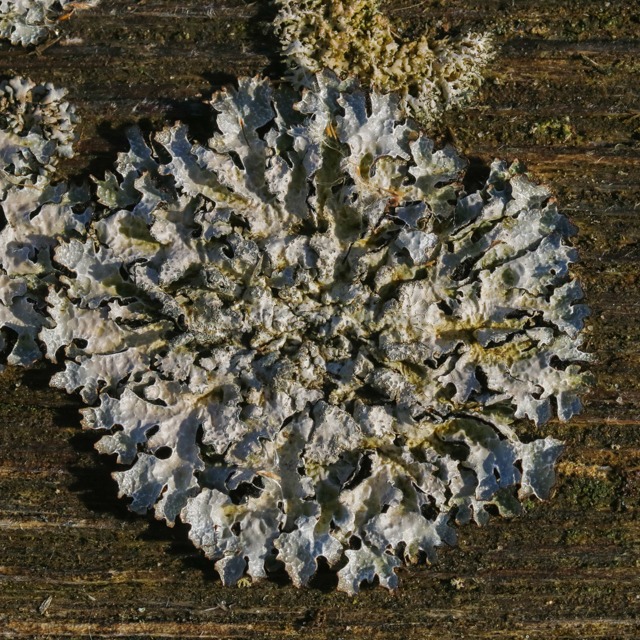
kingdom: Fungi
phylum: Ascomycota
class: Lecanoromycetes
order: Lecanorales
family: Parmeliaceae
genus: Parmelia
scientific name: Parmelia sulcata
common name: Rynket skållav
